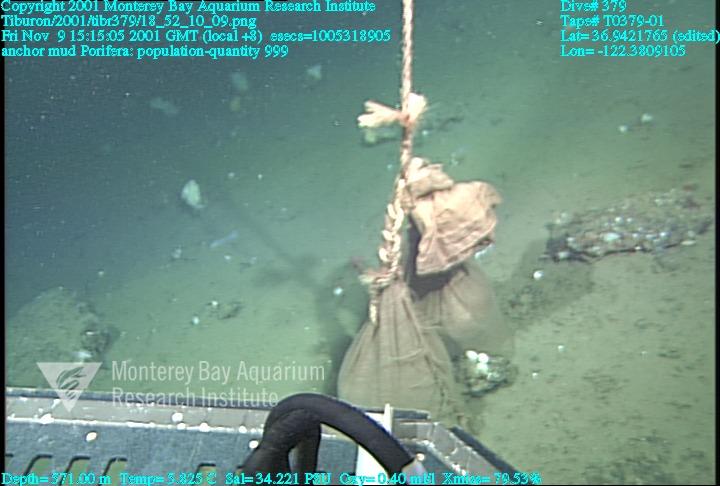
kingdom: Animalia
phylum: Porifera
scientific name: Porifera
